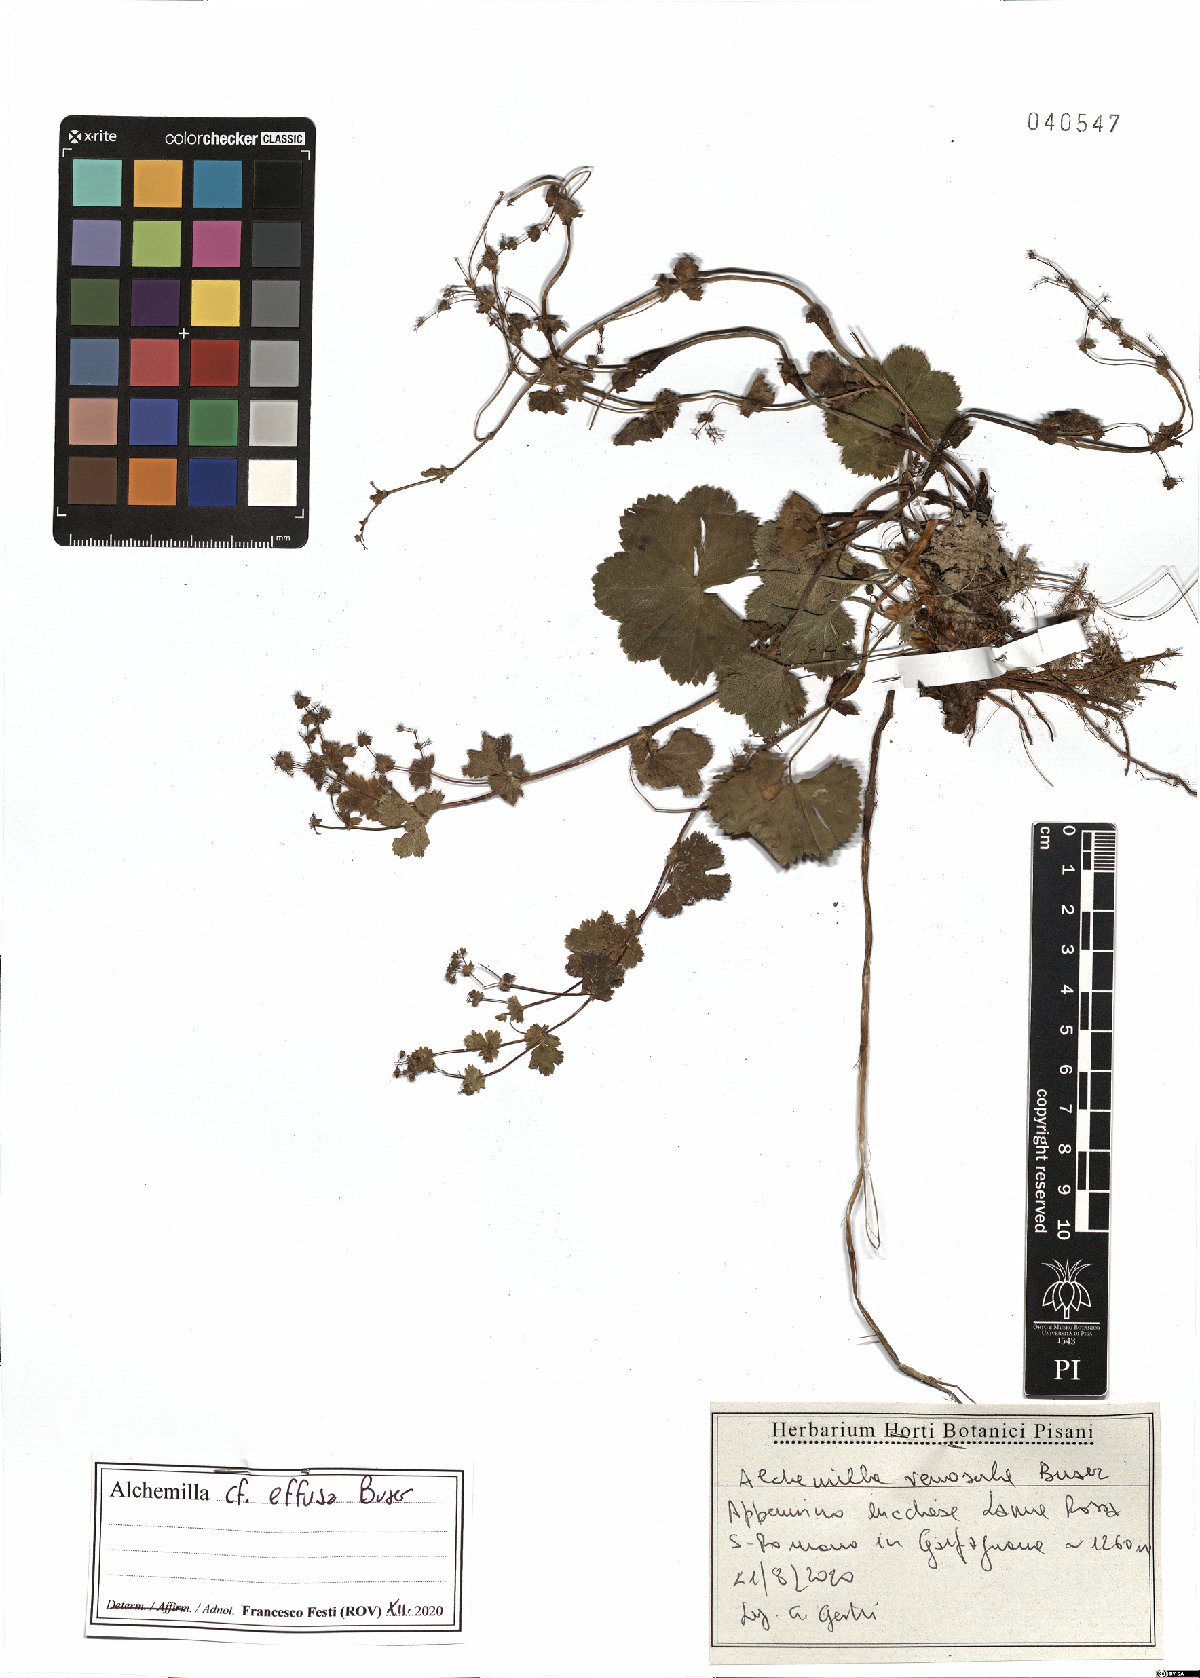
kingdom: Plantae
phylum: Tracheophyta
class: Magnoliopsida
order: Rosales
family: Rosaceae
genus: Alchemilla
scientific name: Alchemilla effusa
